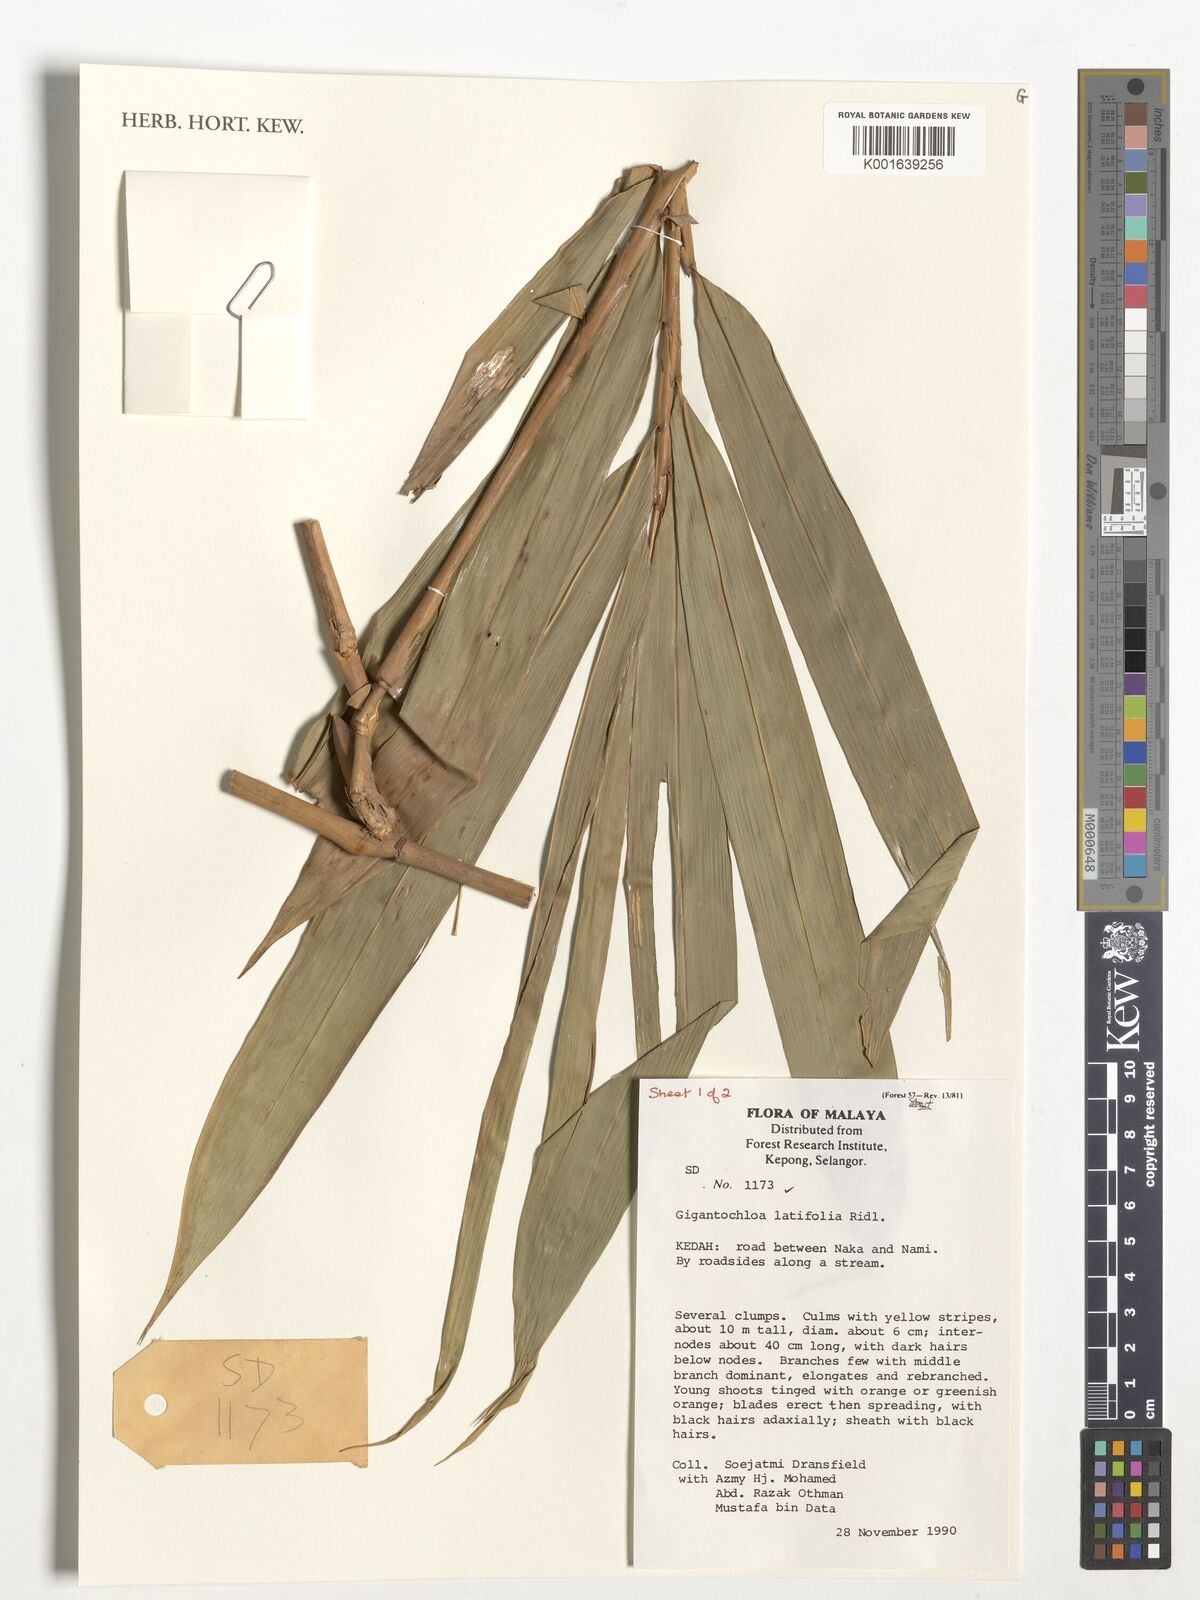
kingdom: Plantae
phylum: Tracheophyta
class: Liliopsida
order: Poales
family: Poaceae
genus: Gigantochloa
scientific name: Gigantochloa latifolia
